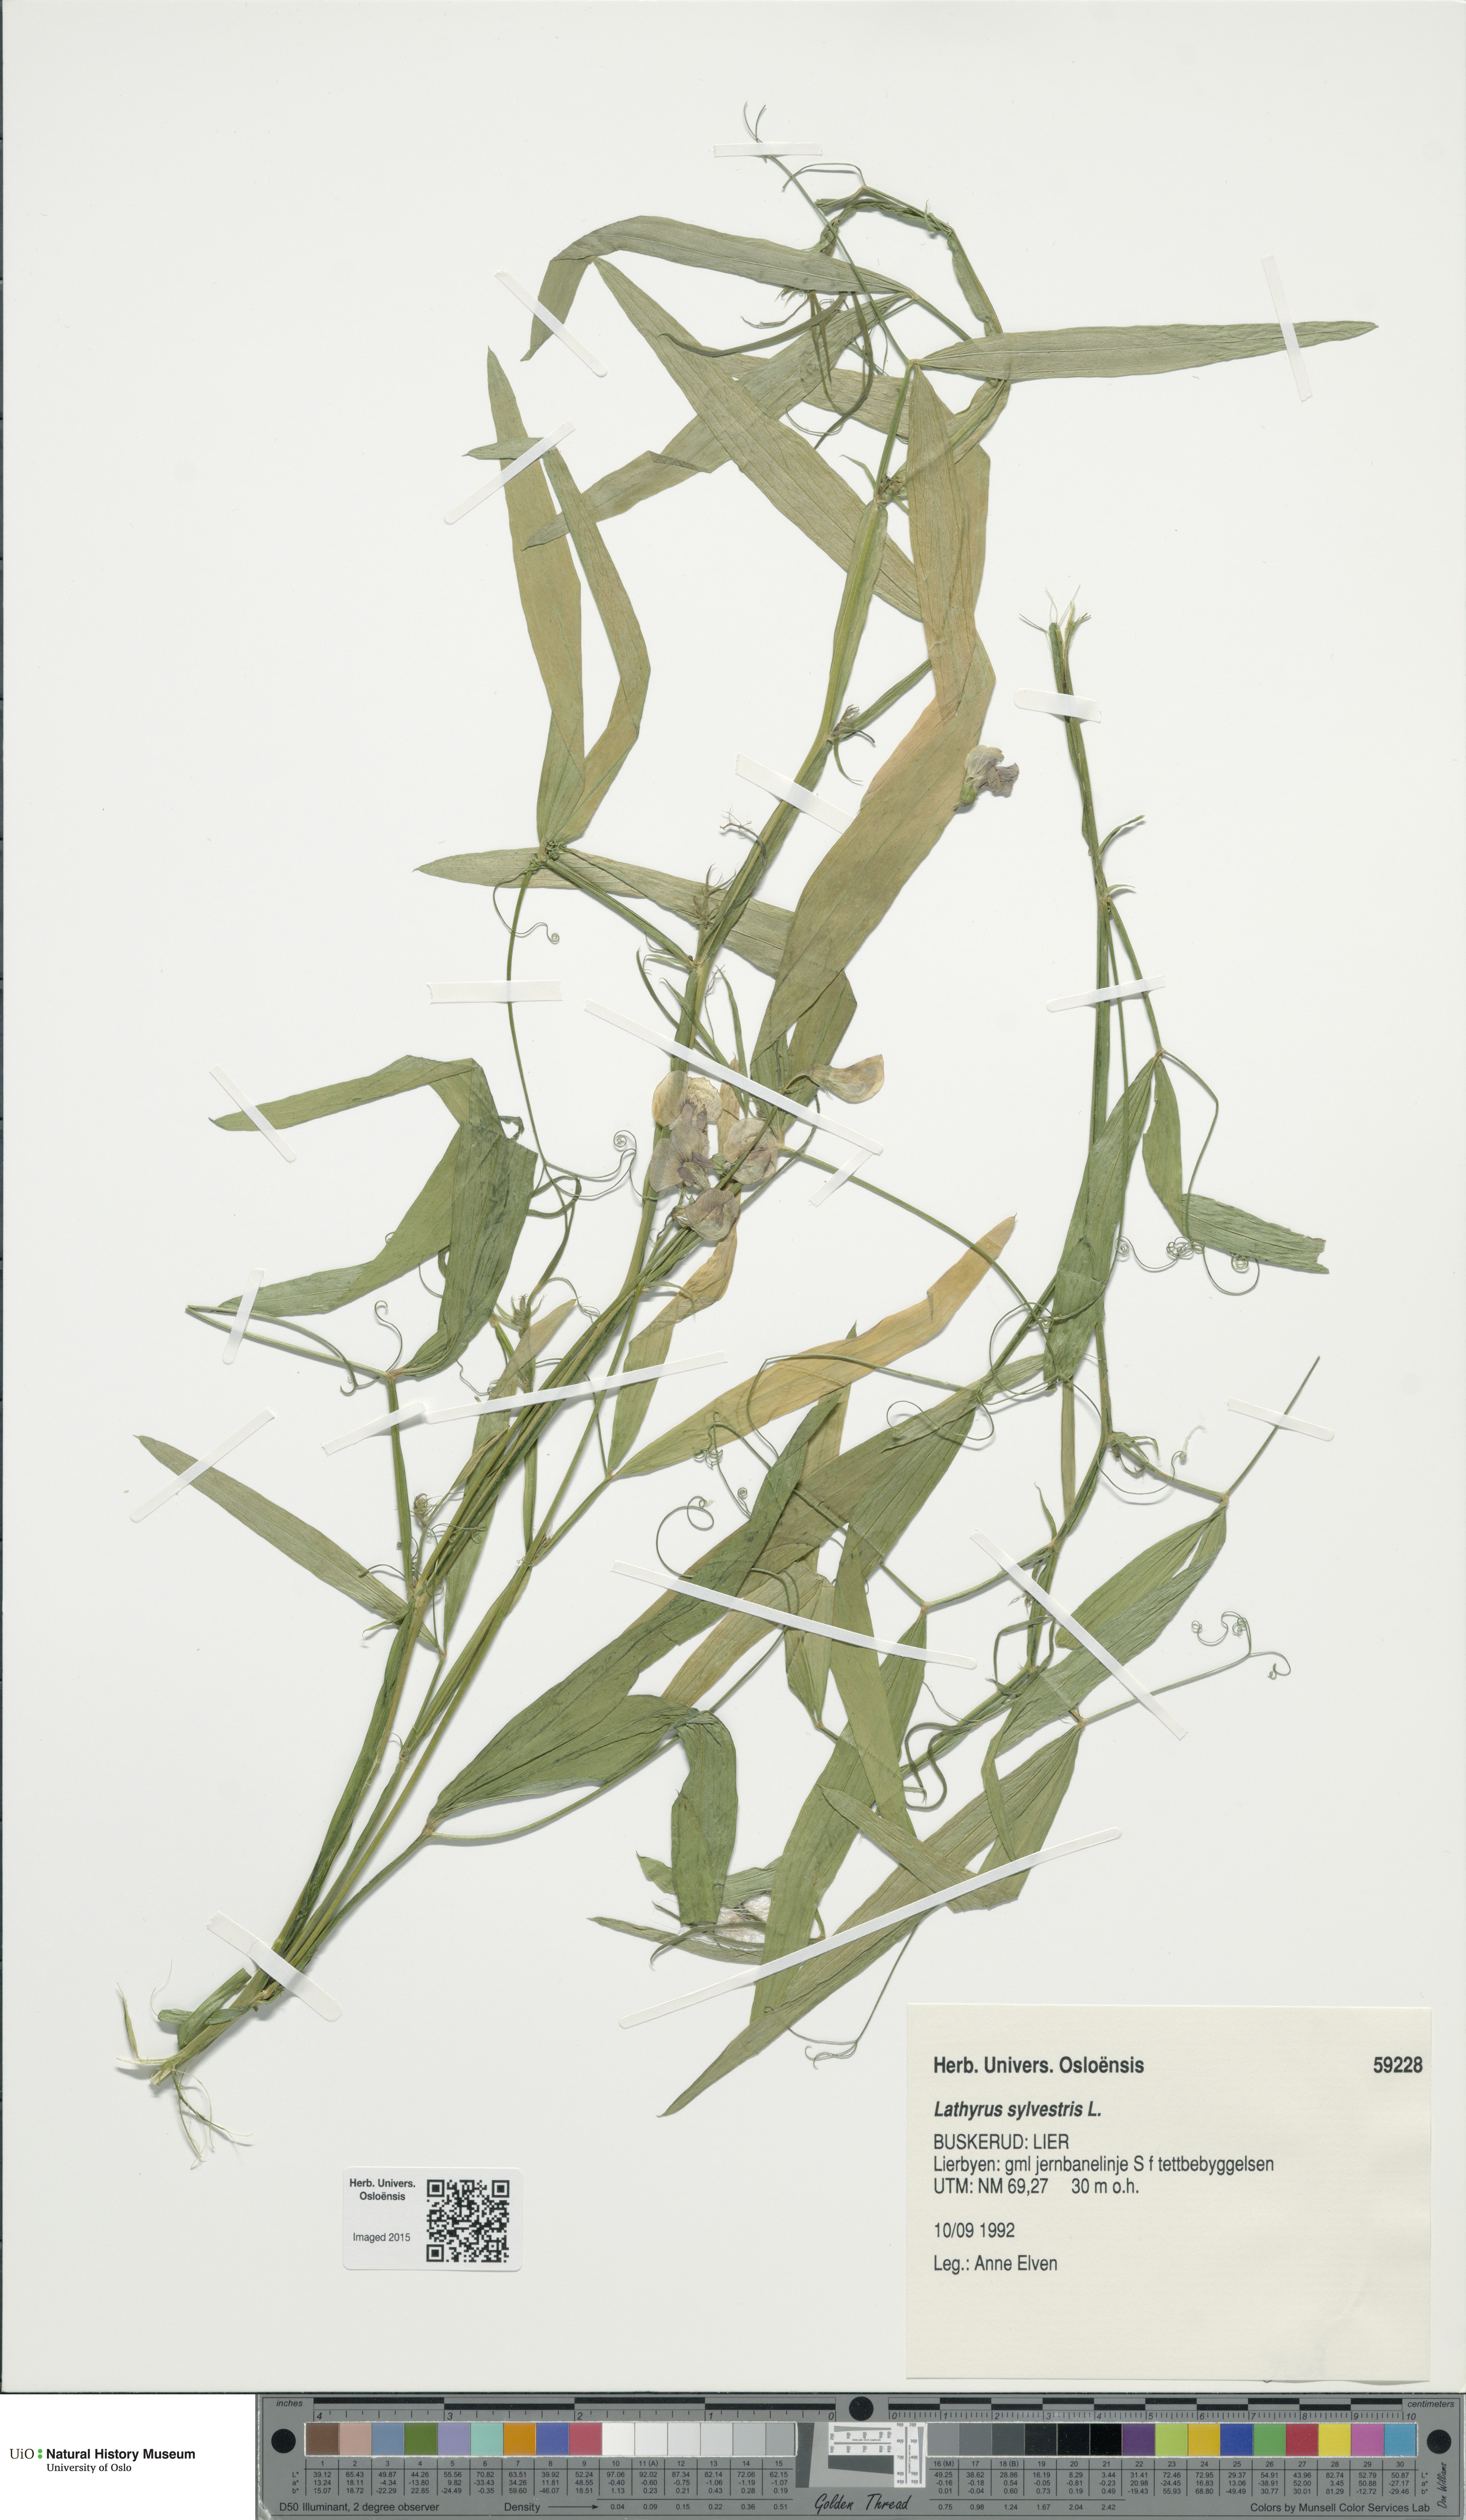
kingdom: Plantae
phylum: Tracheophyta
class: Magnoliopsida
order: Fabales
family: Fabaceae
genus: Lathyrus
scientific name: Lathyrus sylvestris
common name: Flat pea
